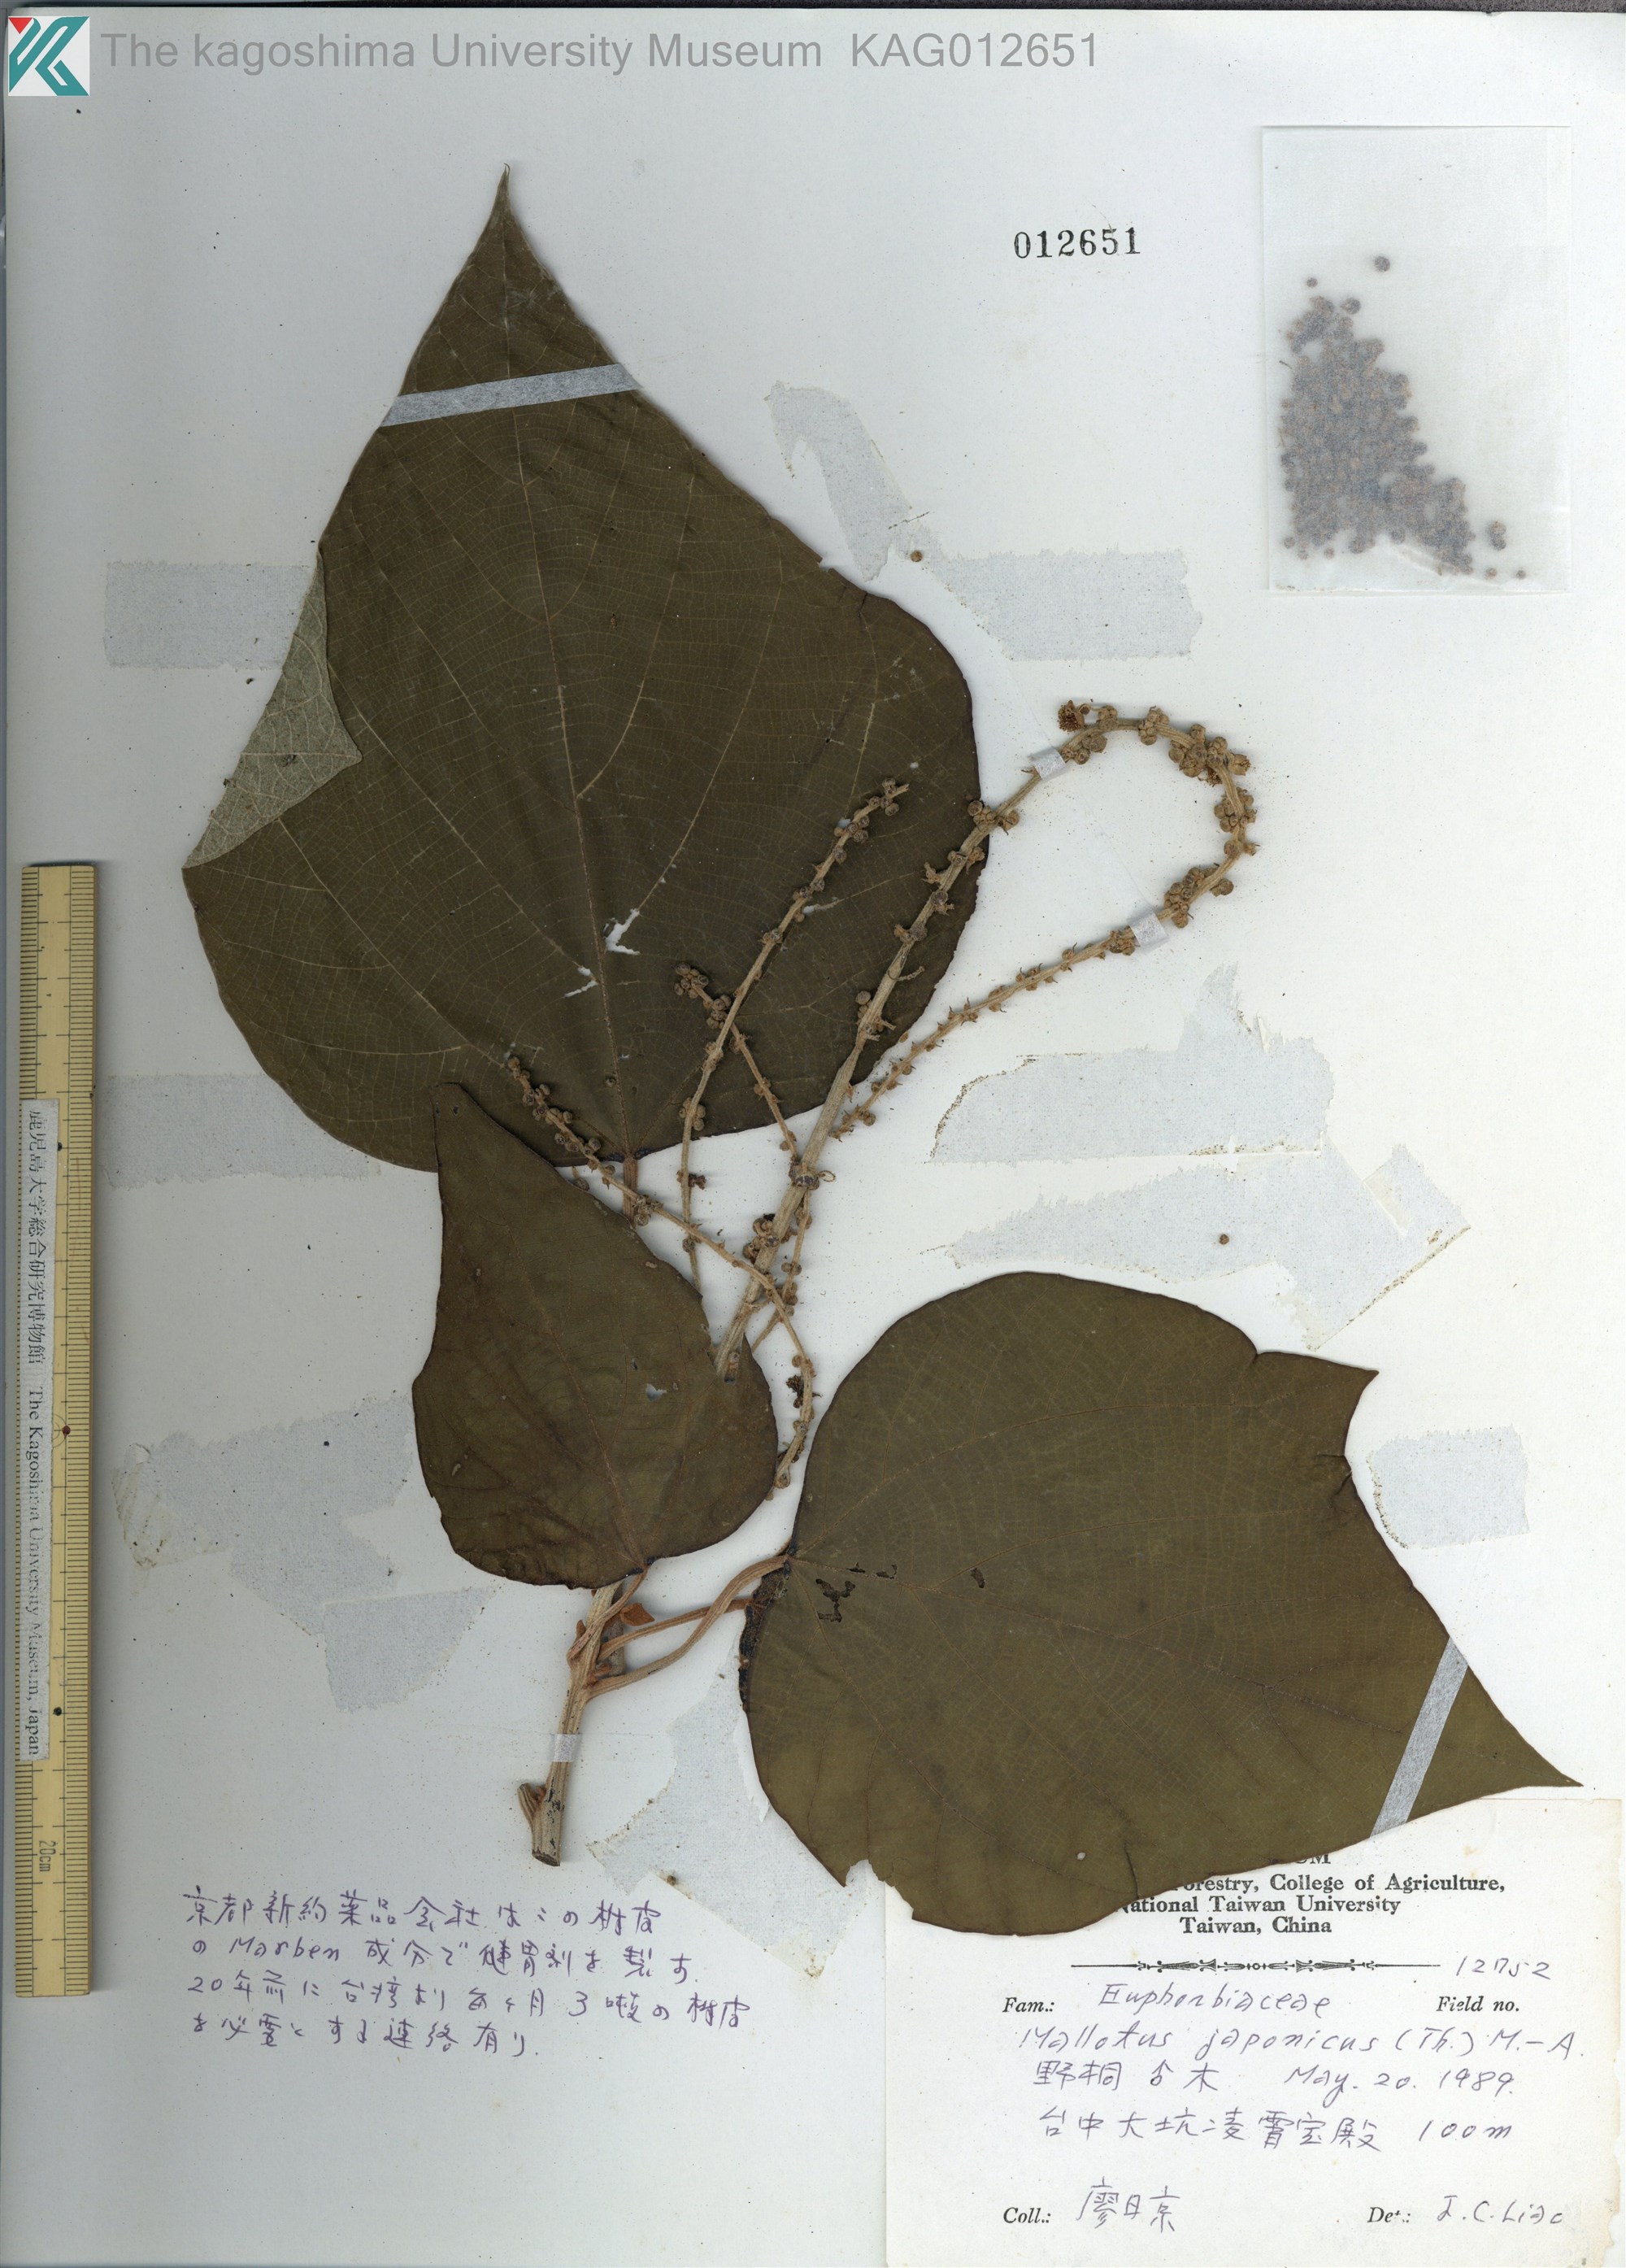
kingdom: Plantae
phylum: Tracheophyta
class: Magnoliopsida
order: Malpighiales
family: Euphorbiaceae
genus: Mallotus
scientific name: Mallotus japonicus
